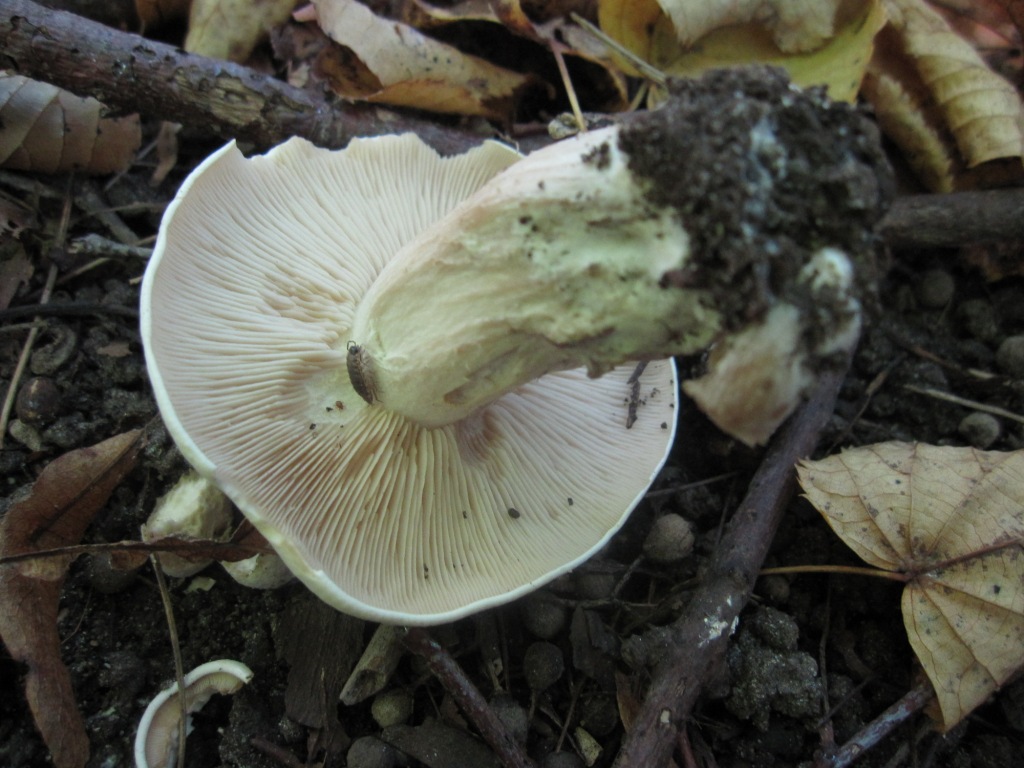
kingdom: Fungi
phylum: Basidiomycota
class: Agaricomycetes
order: Agaricales
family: Tricholomataceae
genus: Lepista
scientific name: Lepista irina
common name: violduftende hekseringshat
